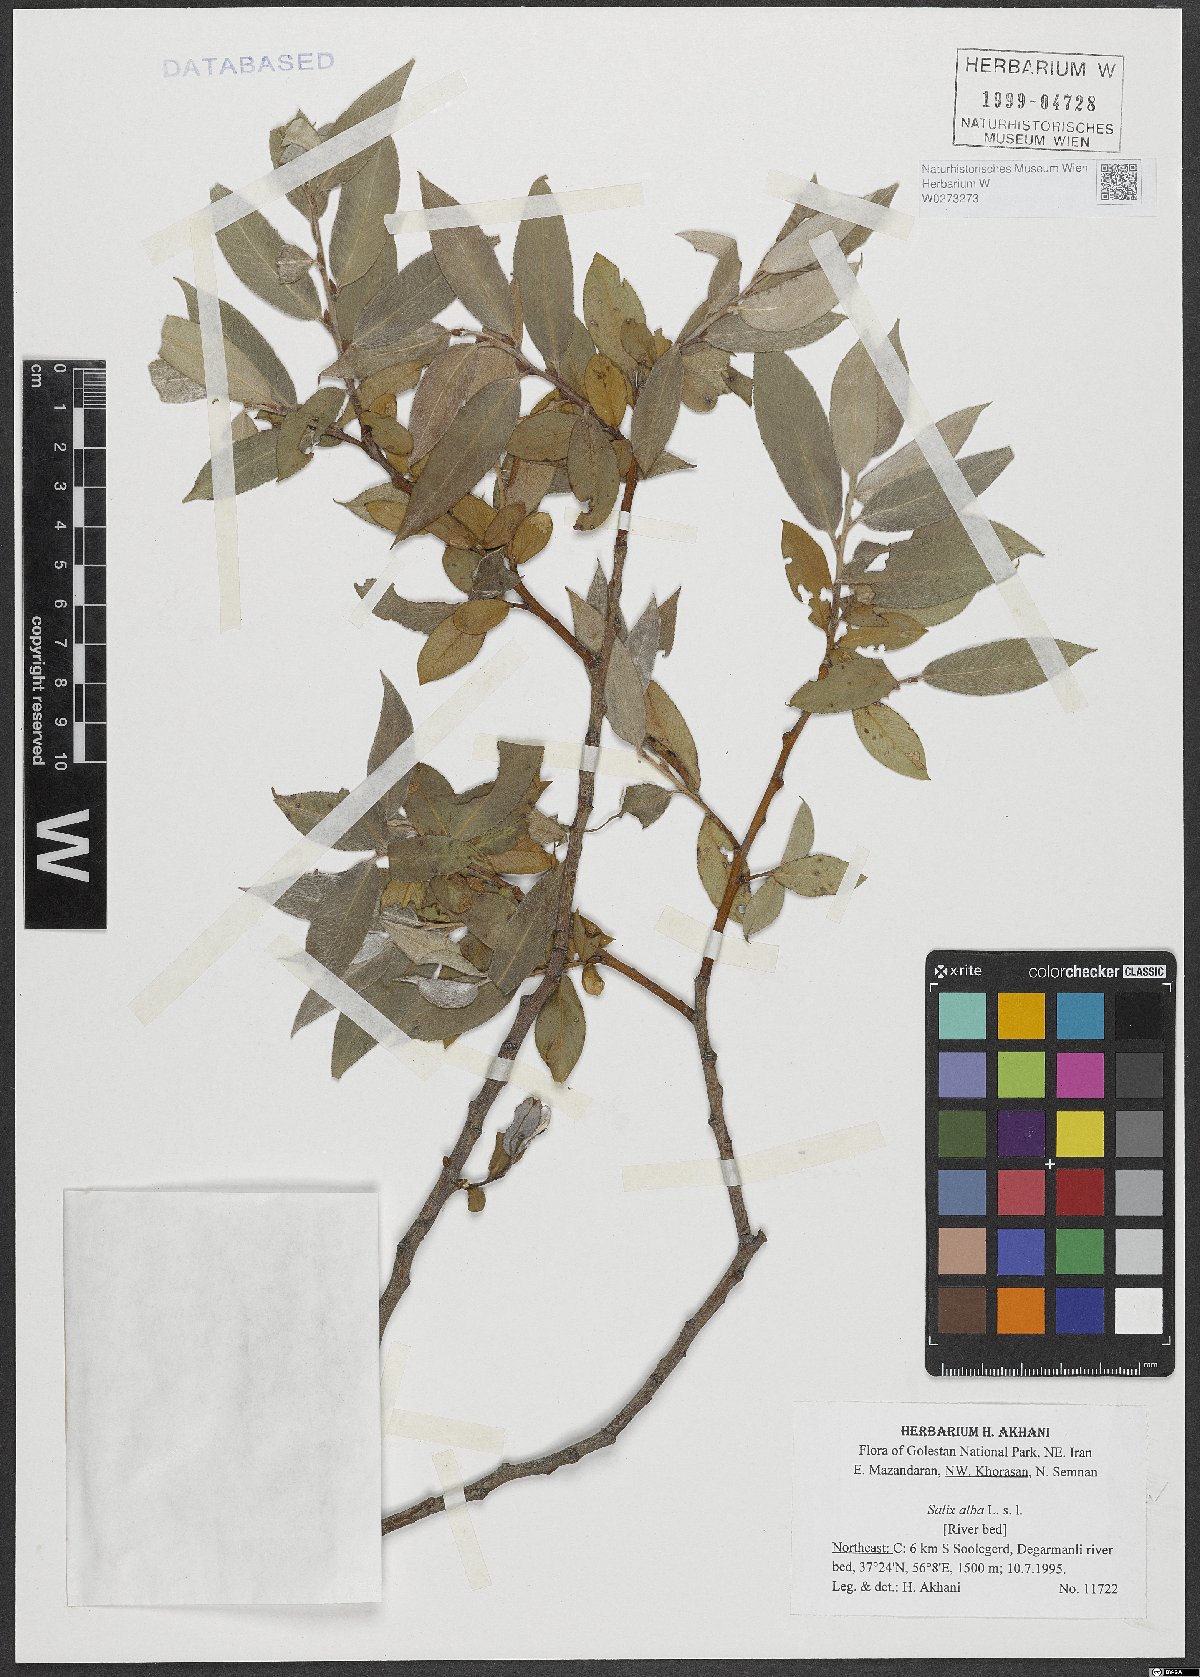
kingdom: Plantae
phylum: Tracheophyta
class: Magnoliopsida
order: Malpighiales
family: Salicaceae
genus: Salix
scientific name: Salix alba
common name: White willow
